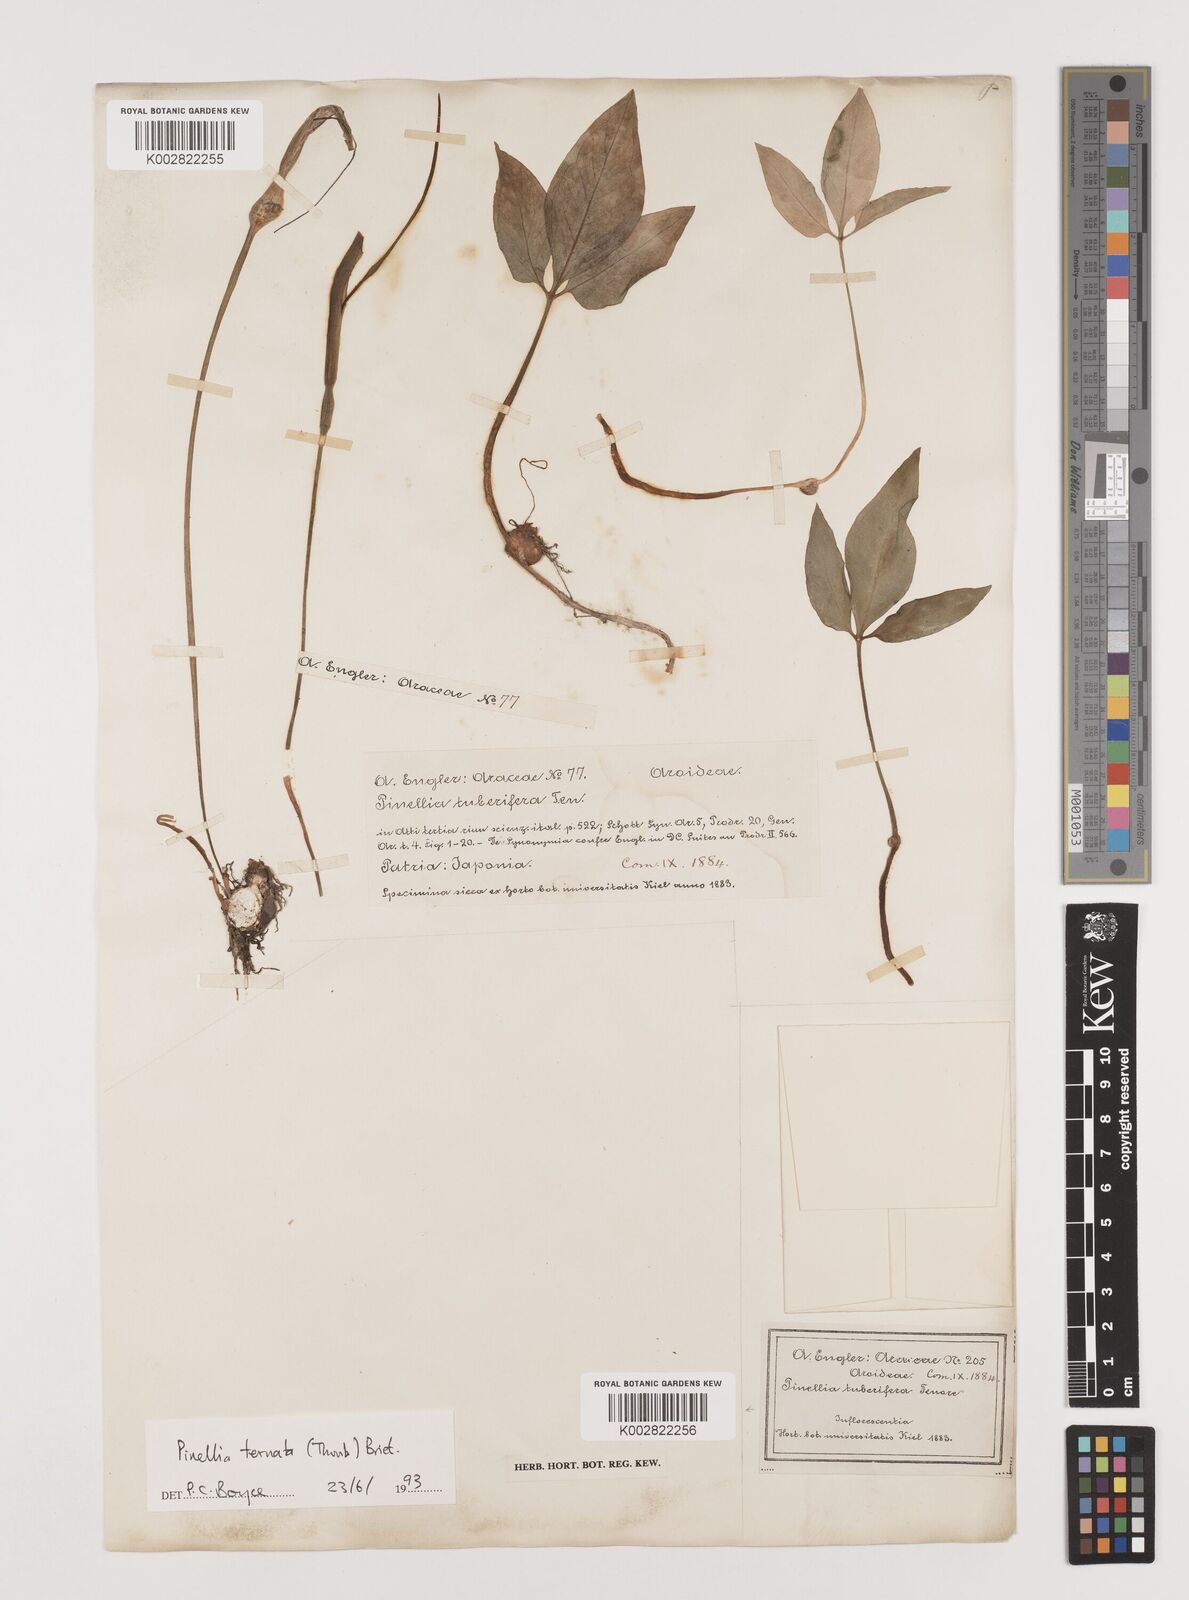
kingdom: Plantae
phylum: Tracheophyta
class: Liliopsida
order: Alismatales
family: Araceae
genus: Pinellia
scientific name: Pinellia ternata
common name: Pinellia
